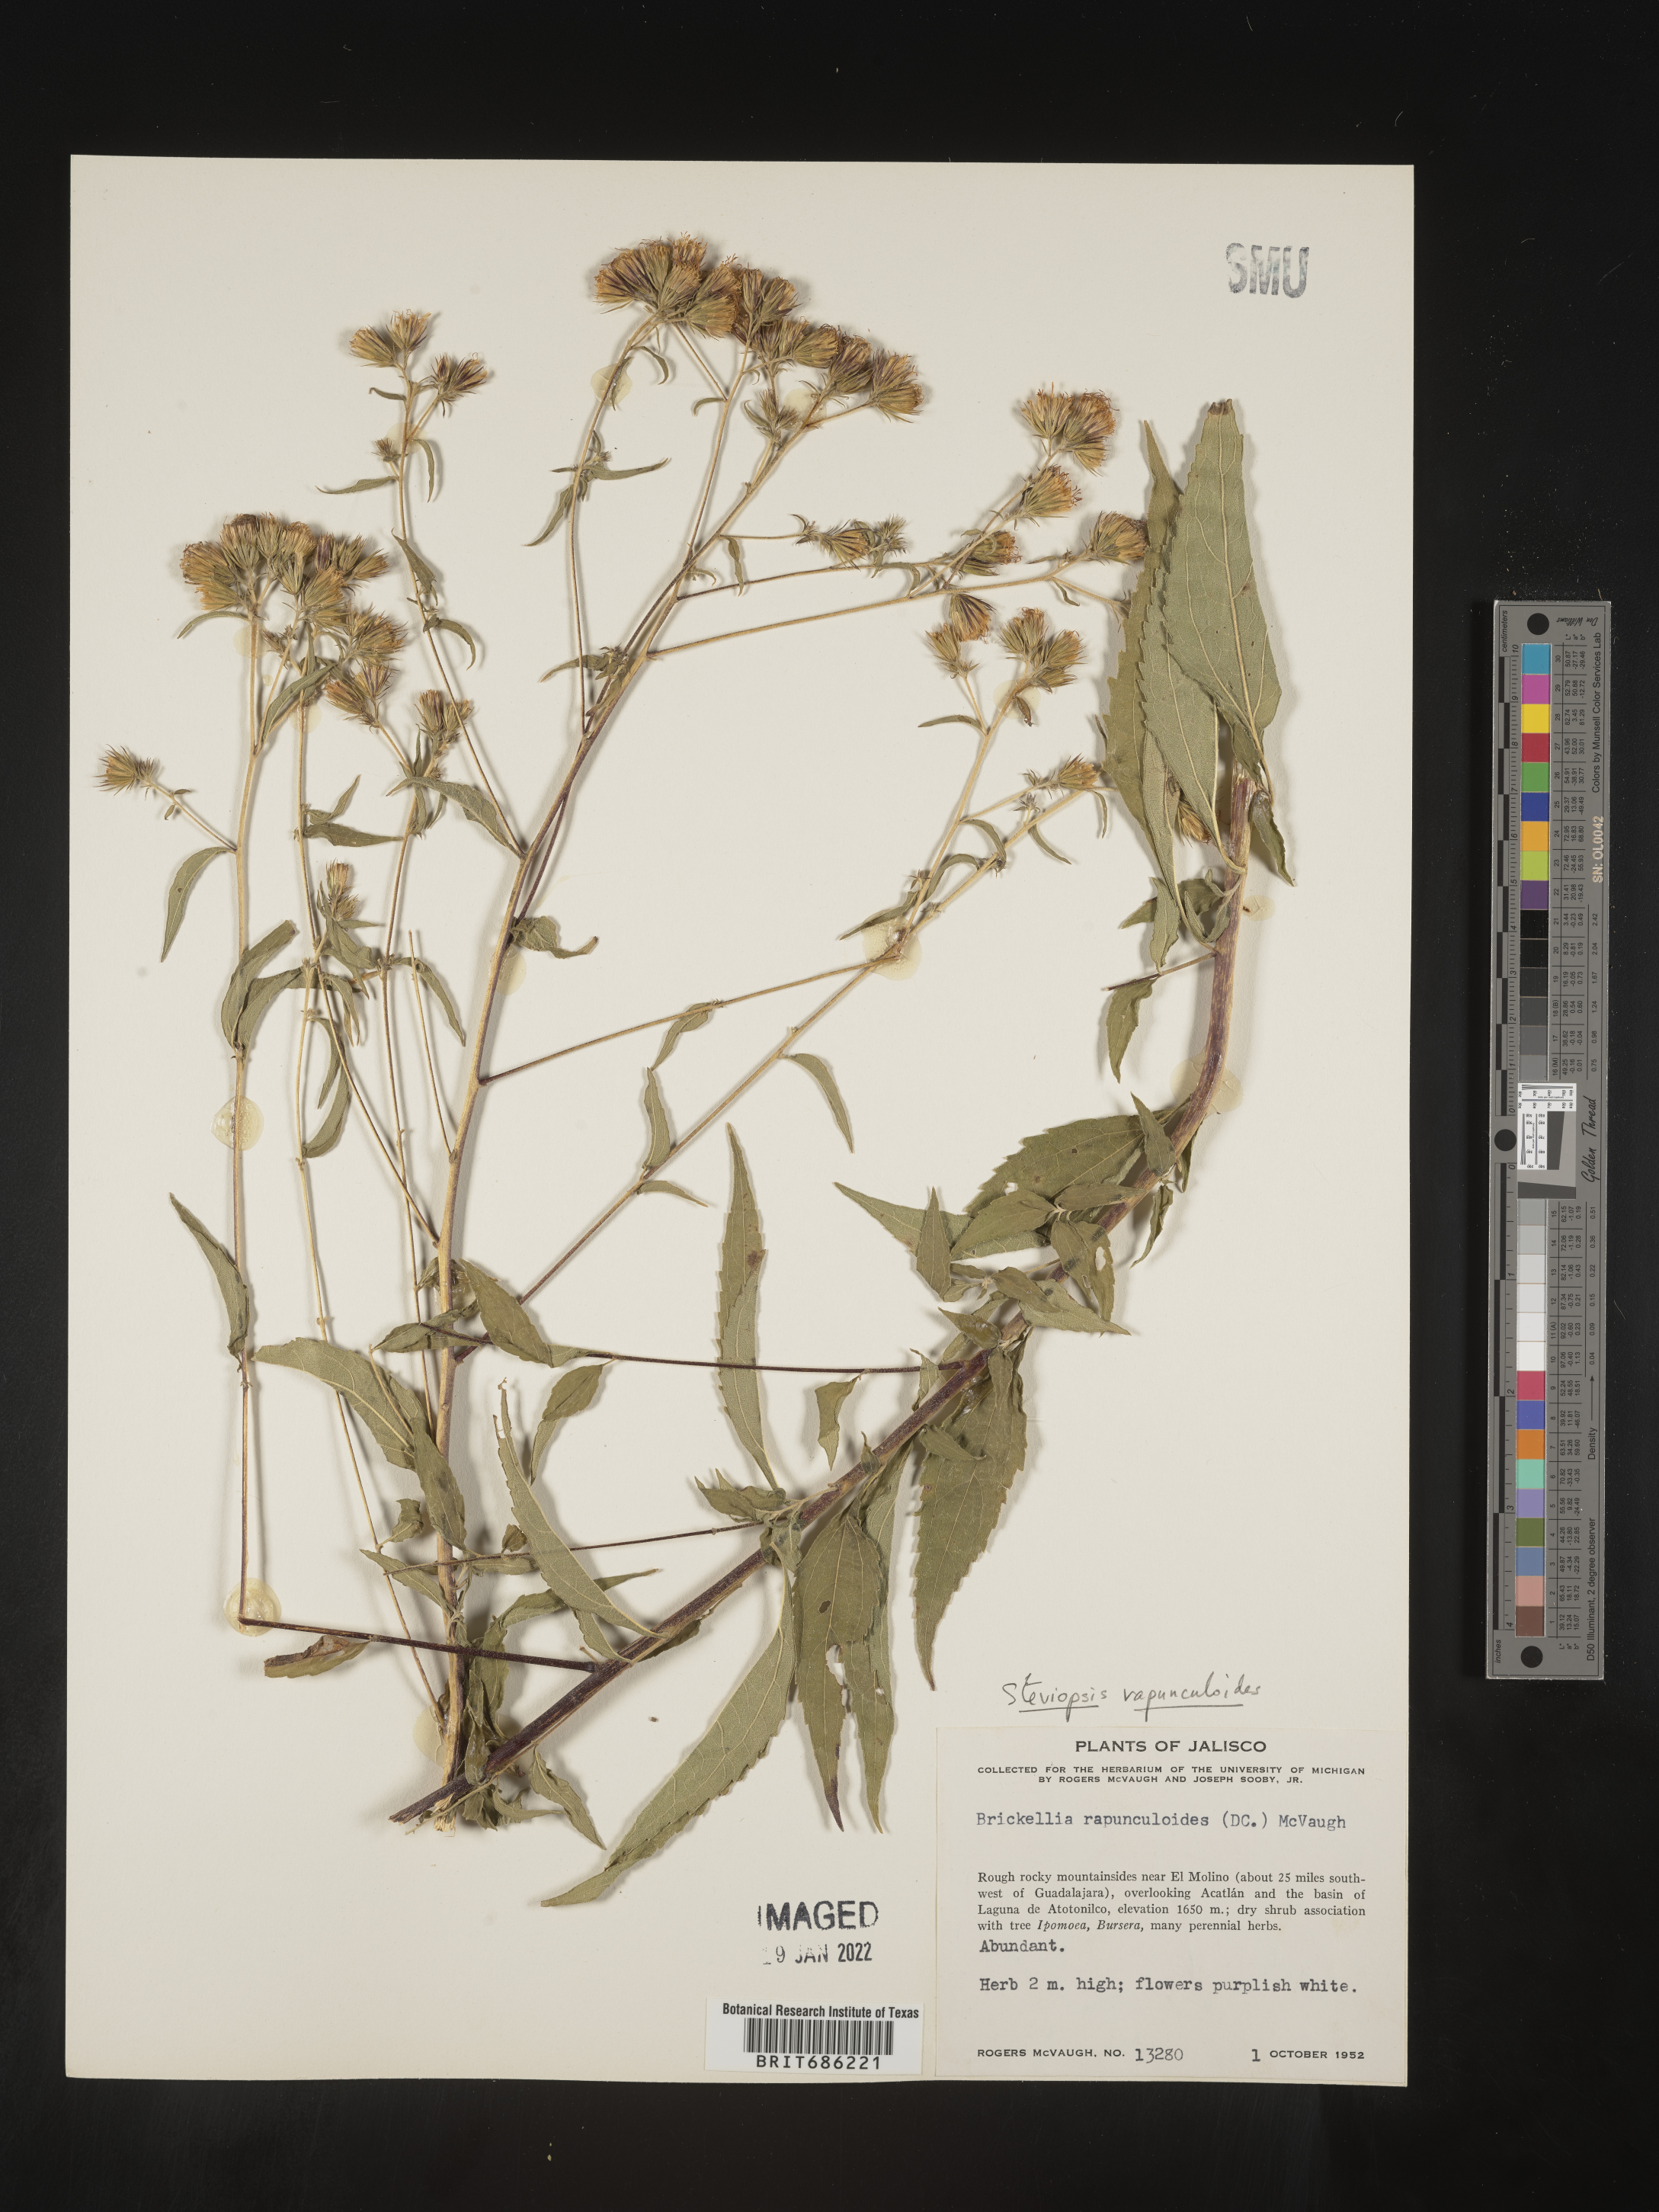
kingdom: Plantae
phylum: Tracheophyta
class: Magnoliopsida
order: Asterales
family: Asteraceae
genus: Steviopsis
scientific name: Steviopsis rapunculoides
